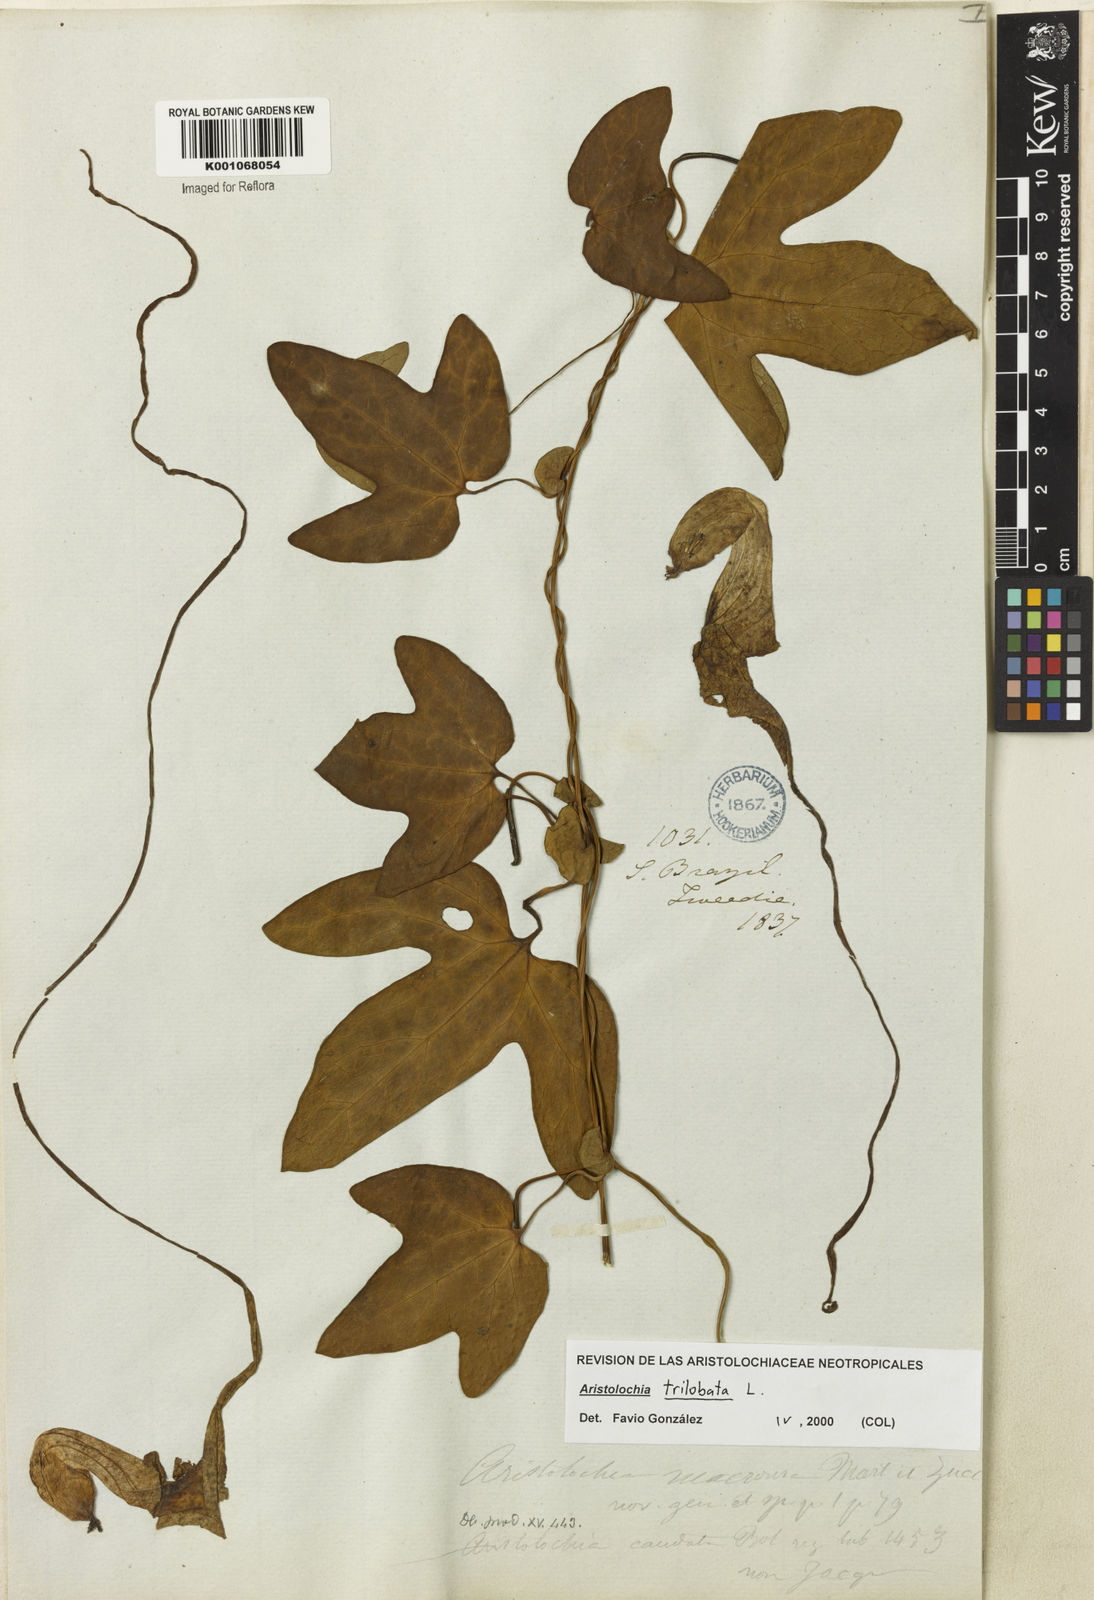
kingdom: Plantae
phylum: Tracheophyta
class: Magnoliopsida
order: Piperales
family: Aristolochiaceae
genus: Aristolochia
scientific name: Aristolochia trilobata
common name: Dutchman's pipe
